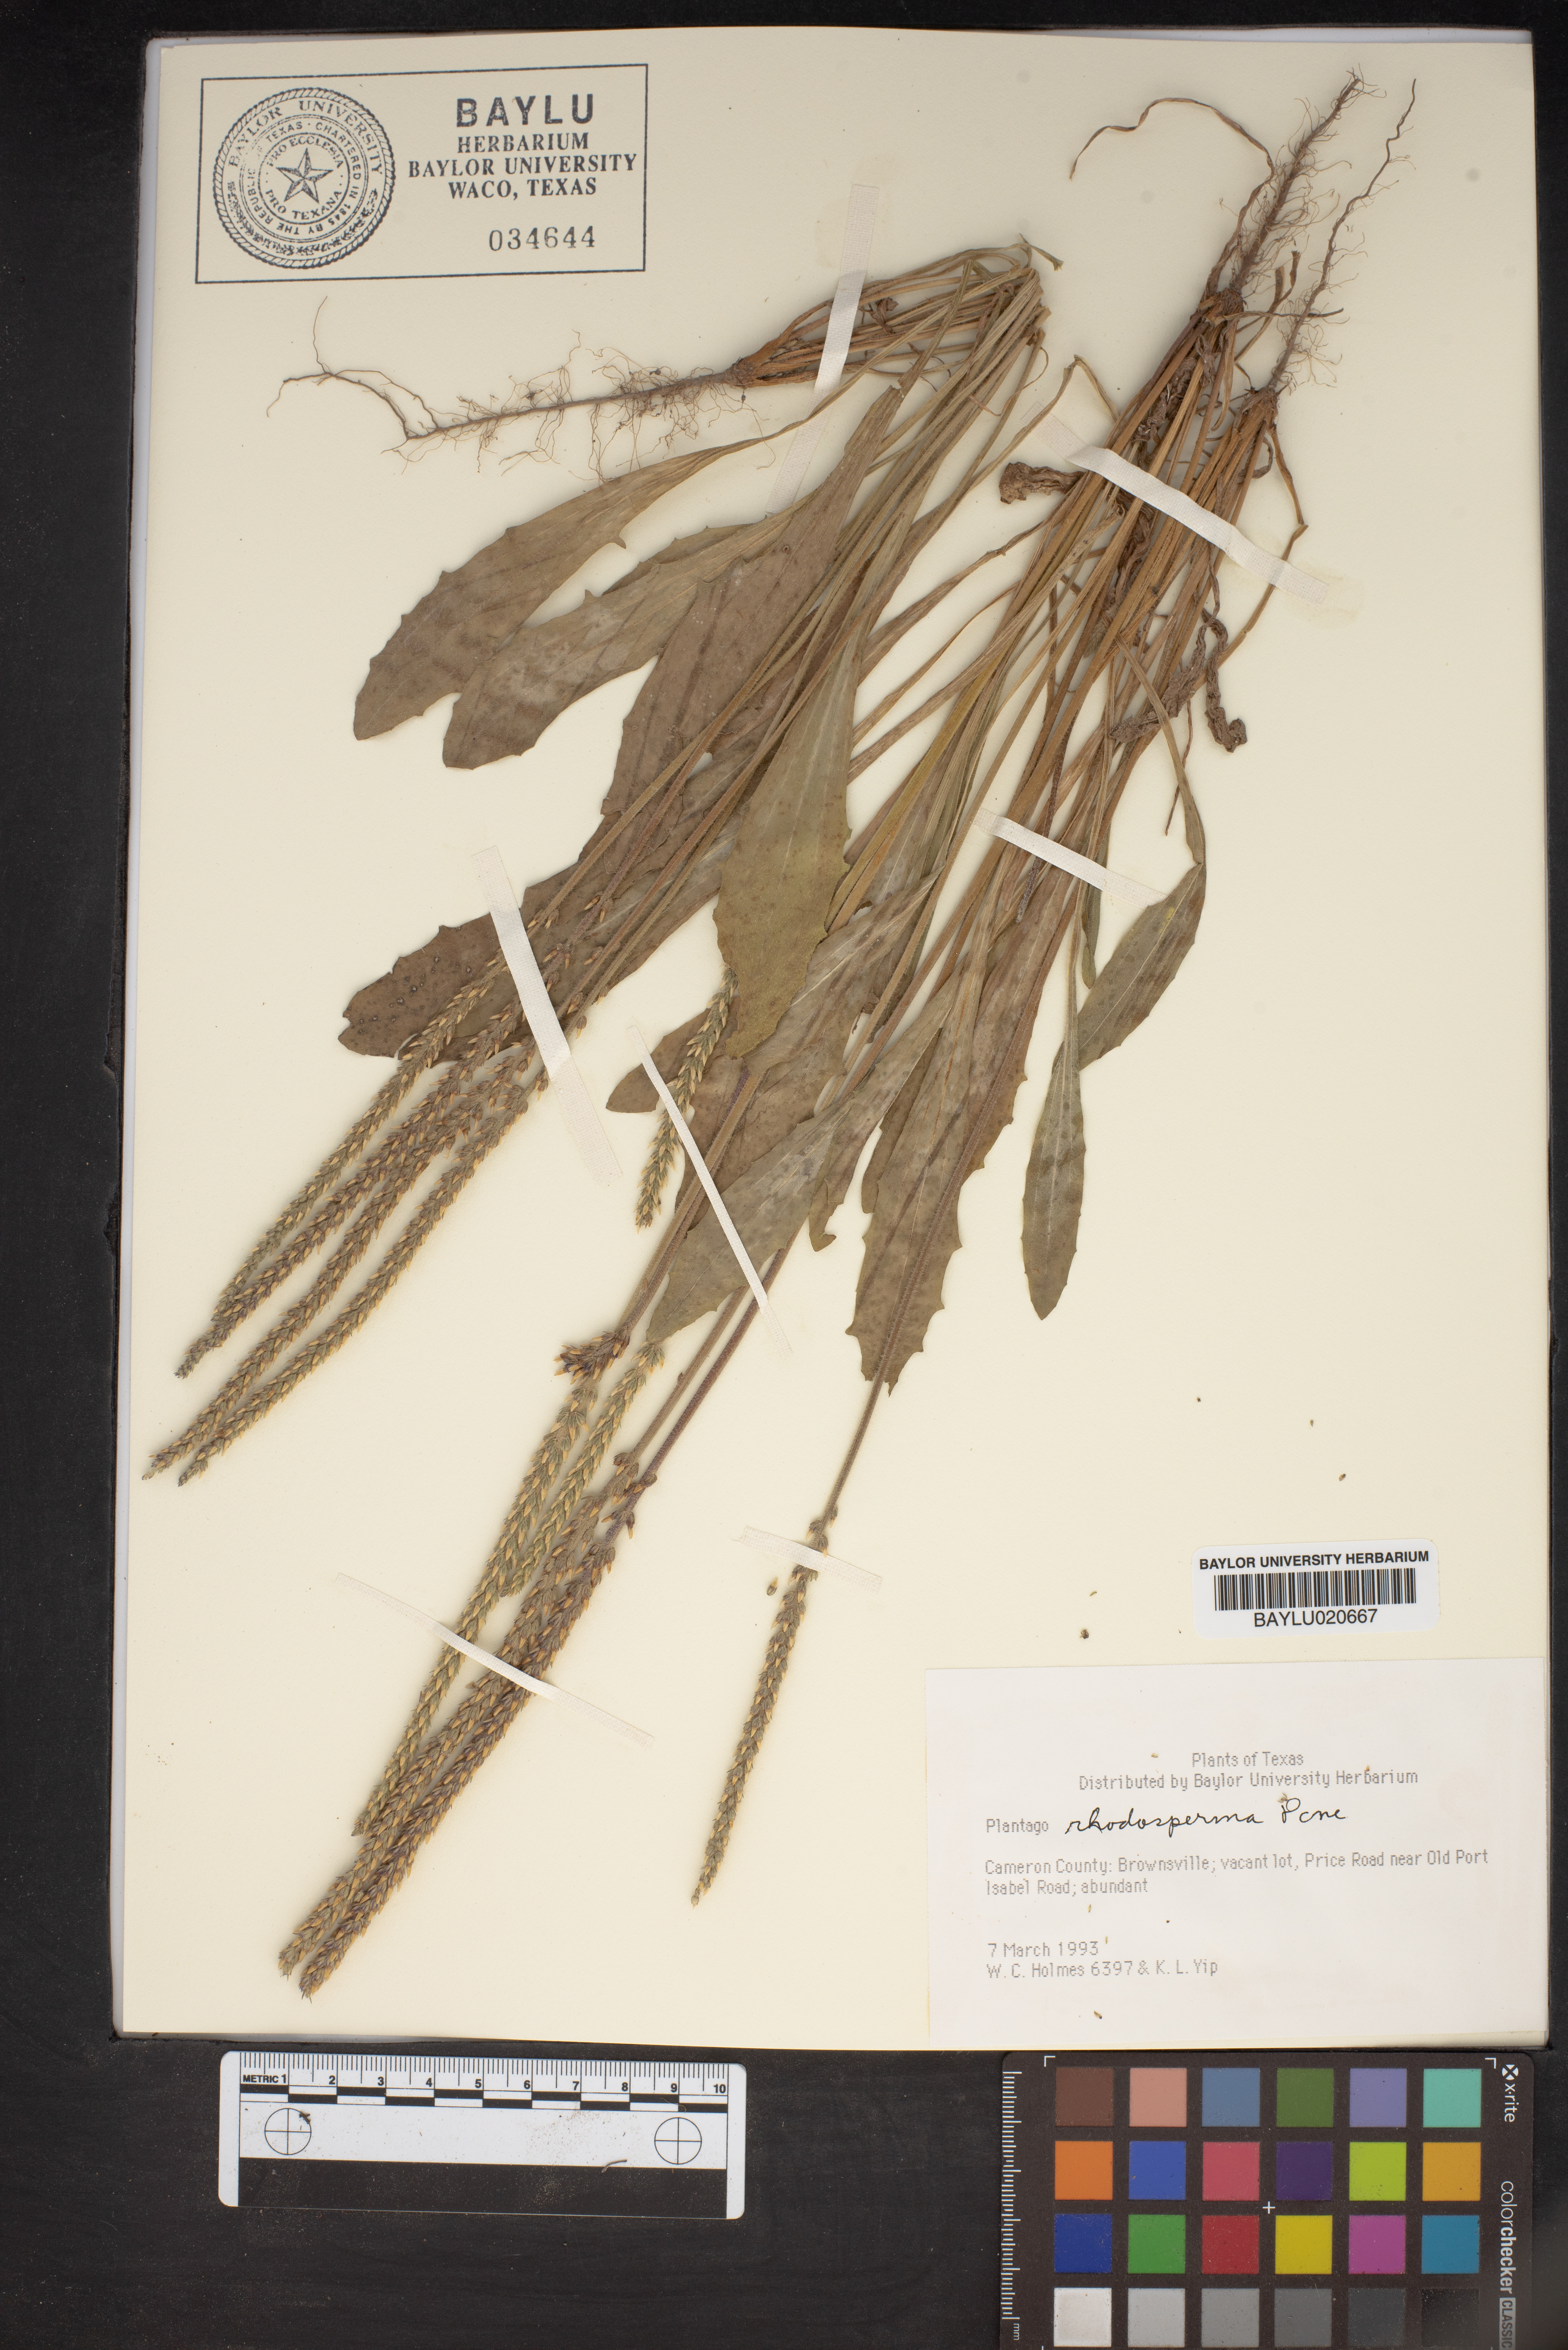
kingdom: Plantae
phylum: Tracheophyta
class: Magnoliopsida
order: Lamiales
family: Plantaginaceae
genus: Plantago
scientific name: Plantago rhodosperma
